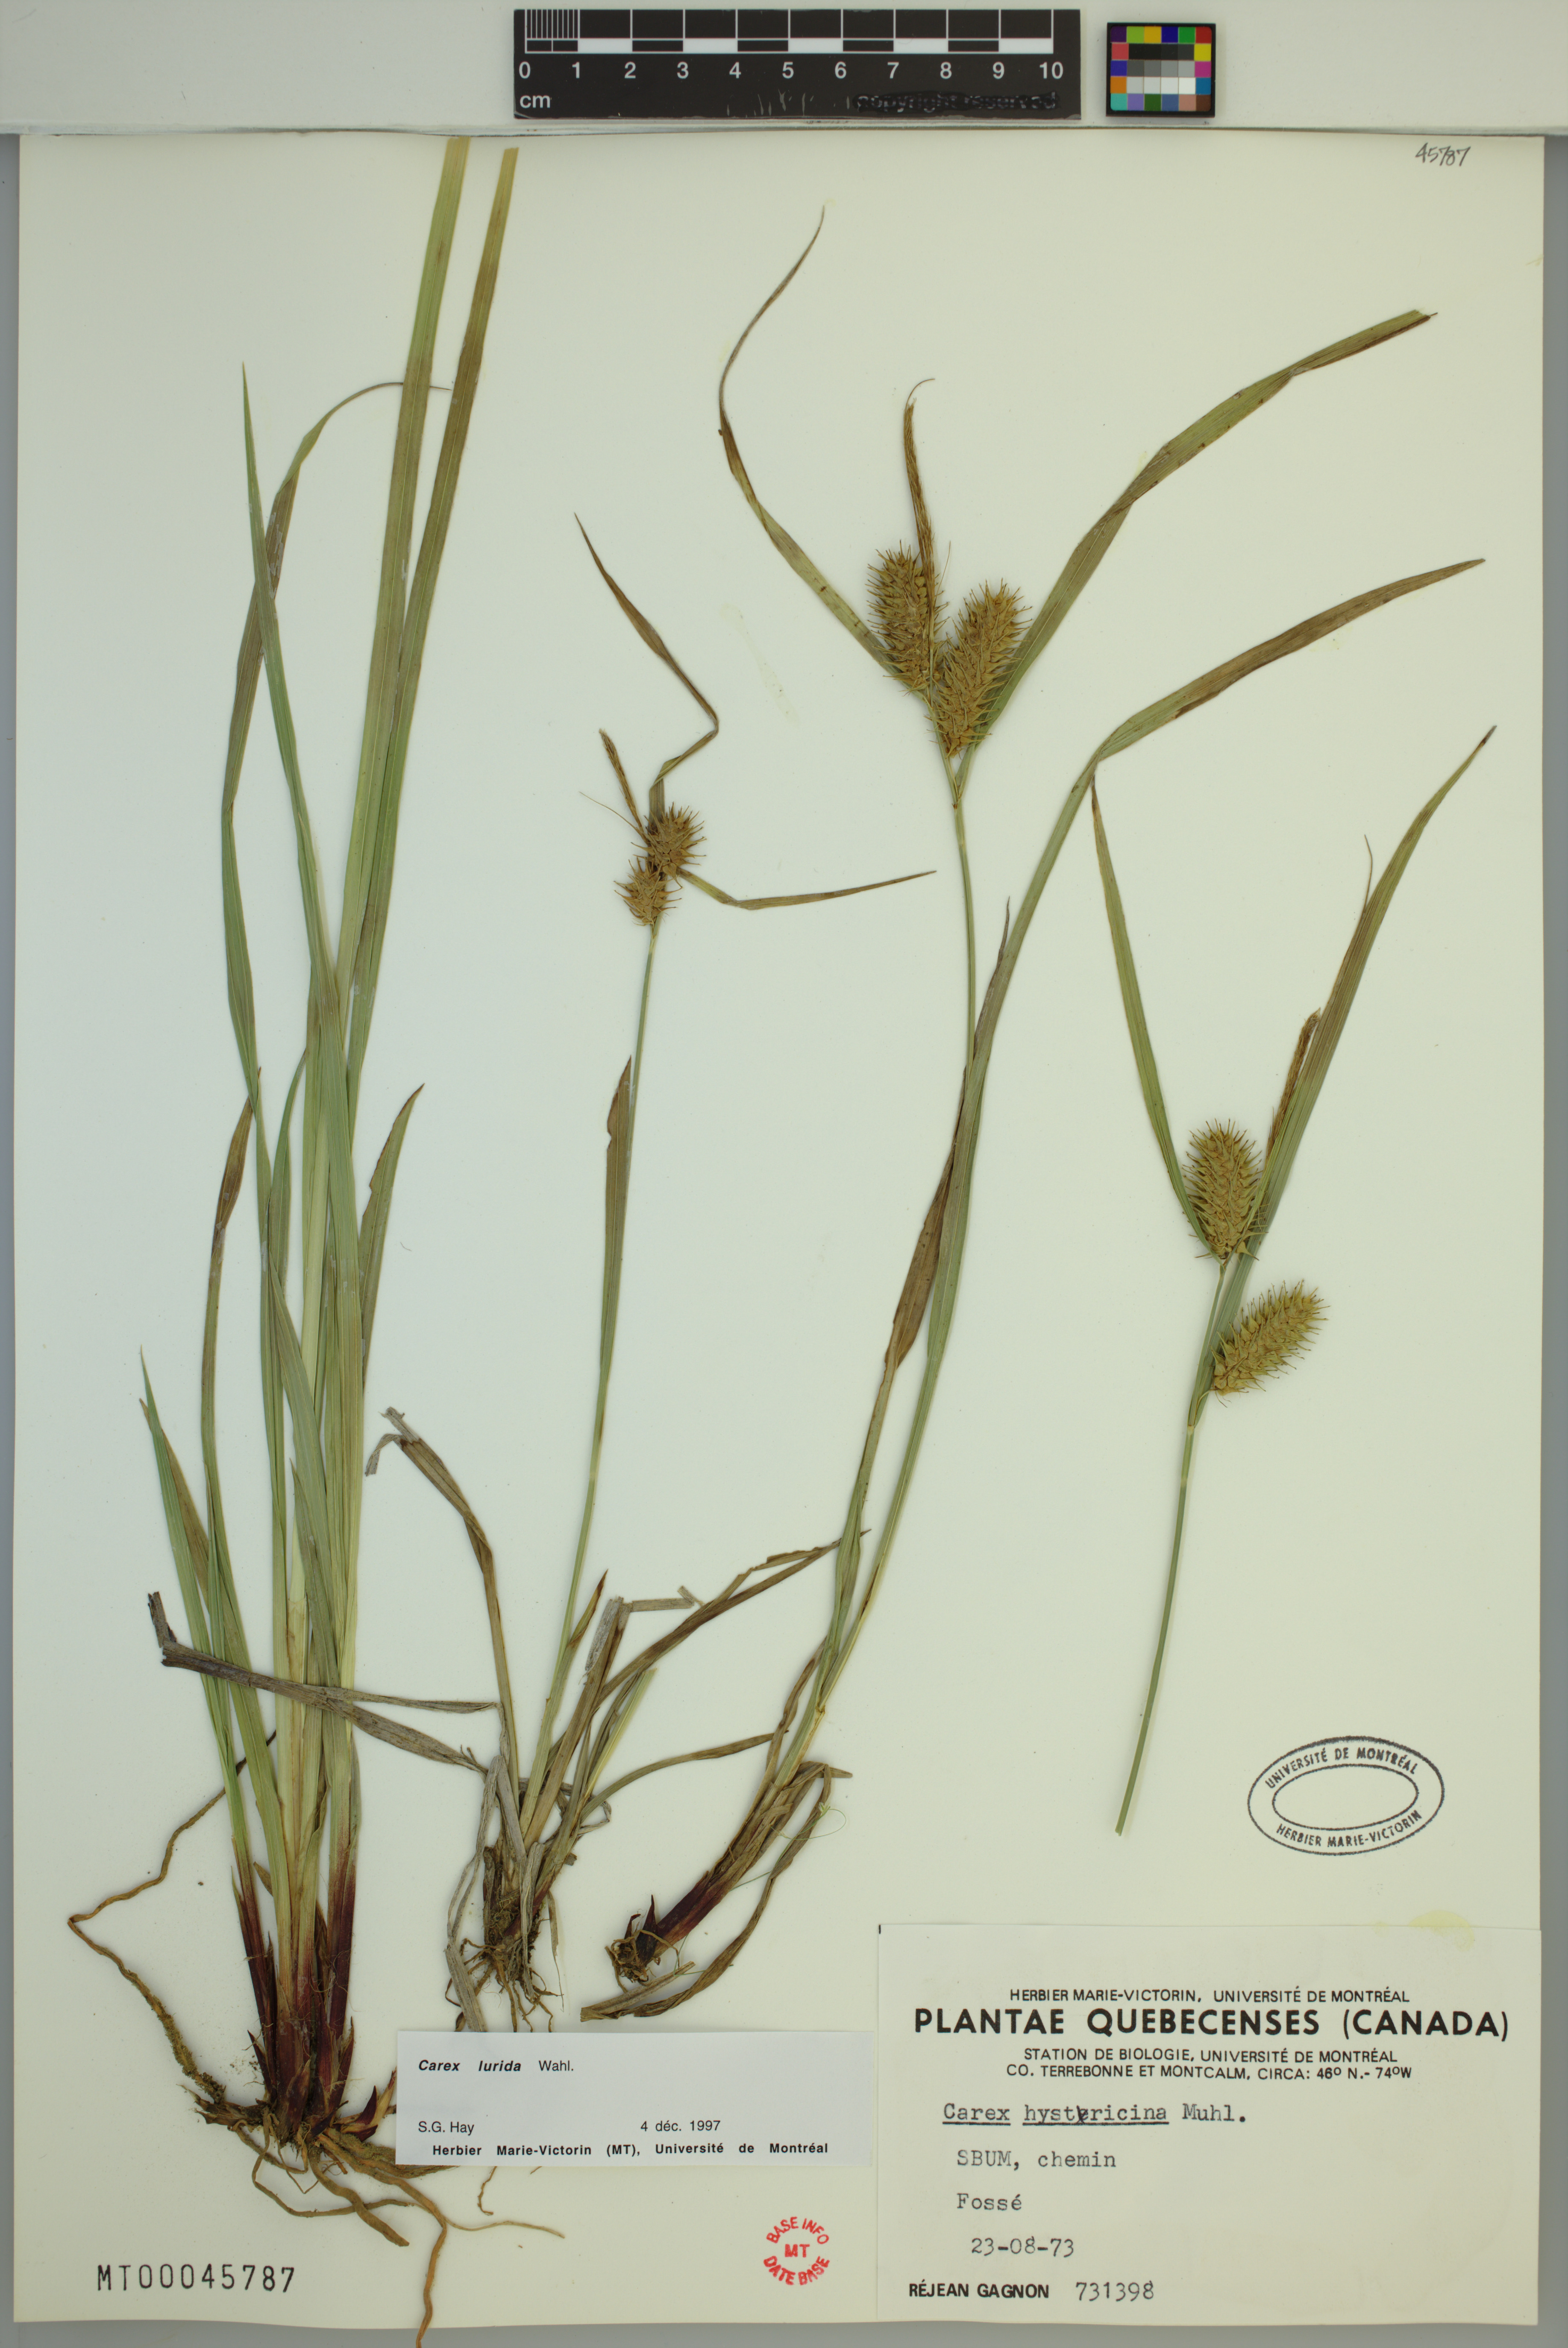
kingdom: Plantae
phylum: Tracheophyta
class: Liliopsida
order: Poales
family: Cyperaceae
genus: Carex
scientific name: Carex lurida
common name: Sallow sedge
